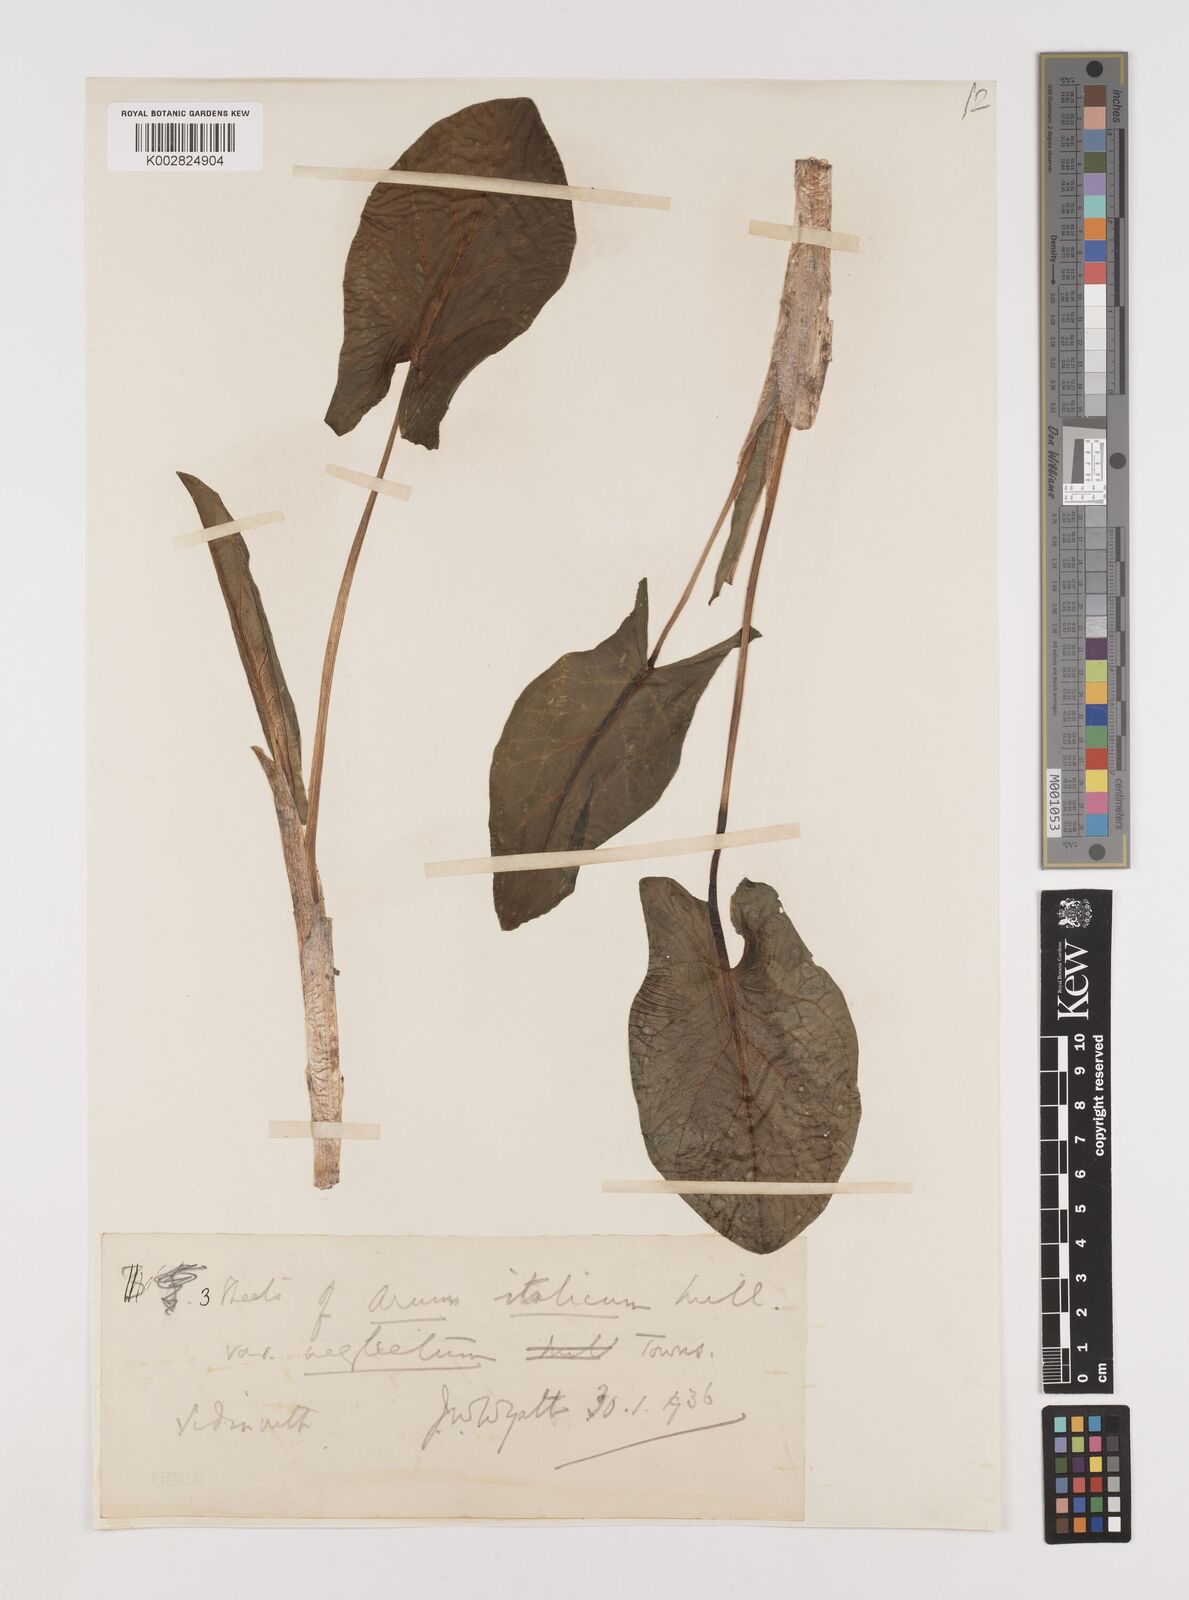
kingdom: Plantae
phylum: Tracheophyta
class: Liliopsida
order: Alismatales
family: Araceae
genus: Arum
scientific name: Arum italicum
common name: Italian lords-and-ladies
